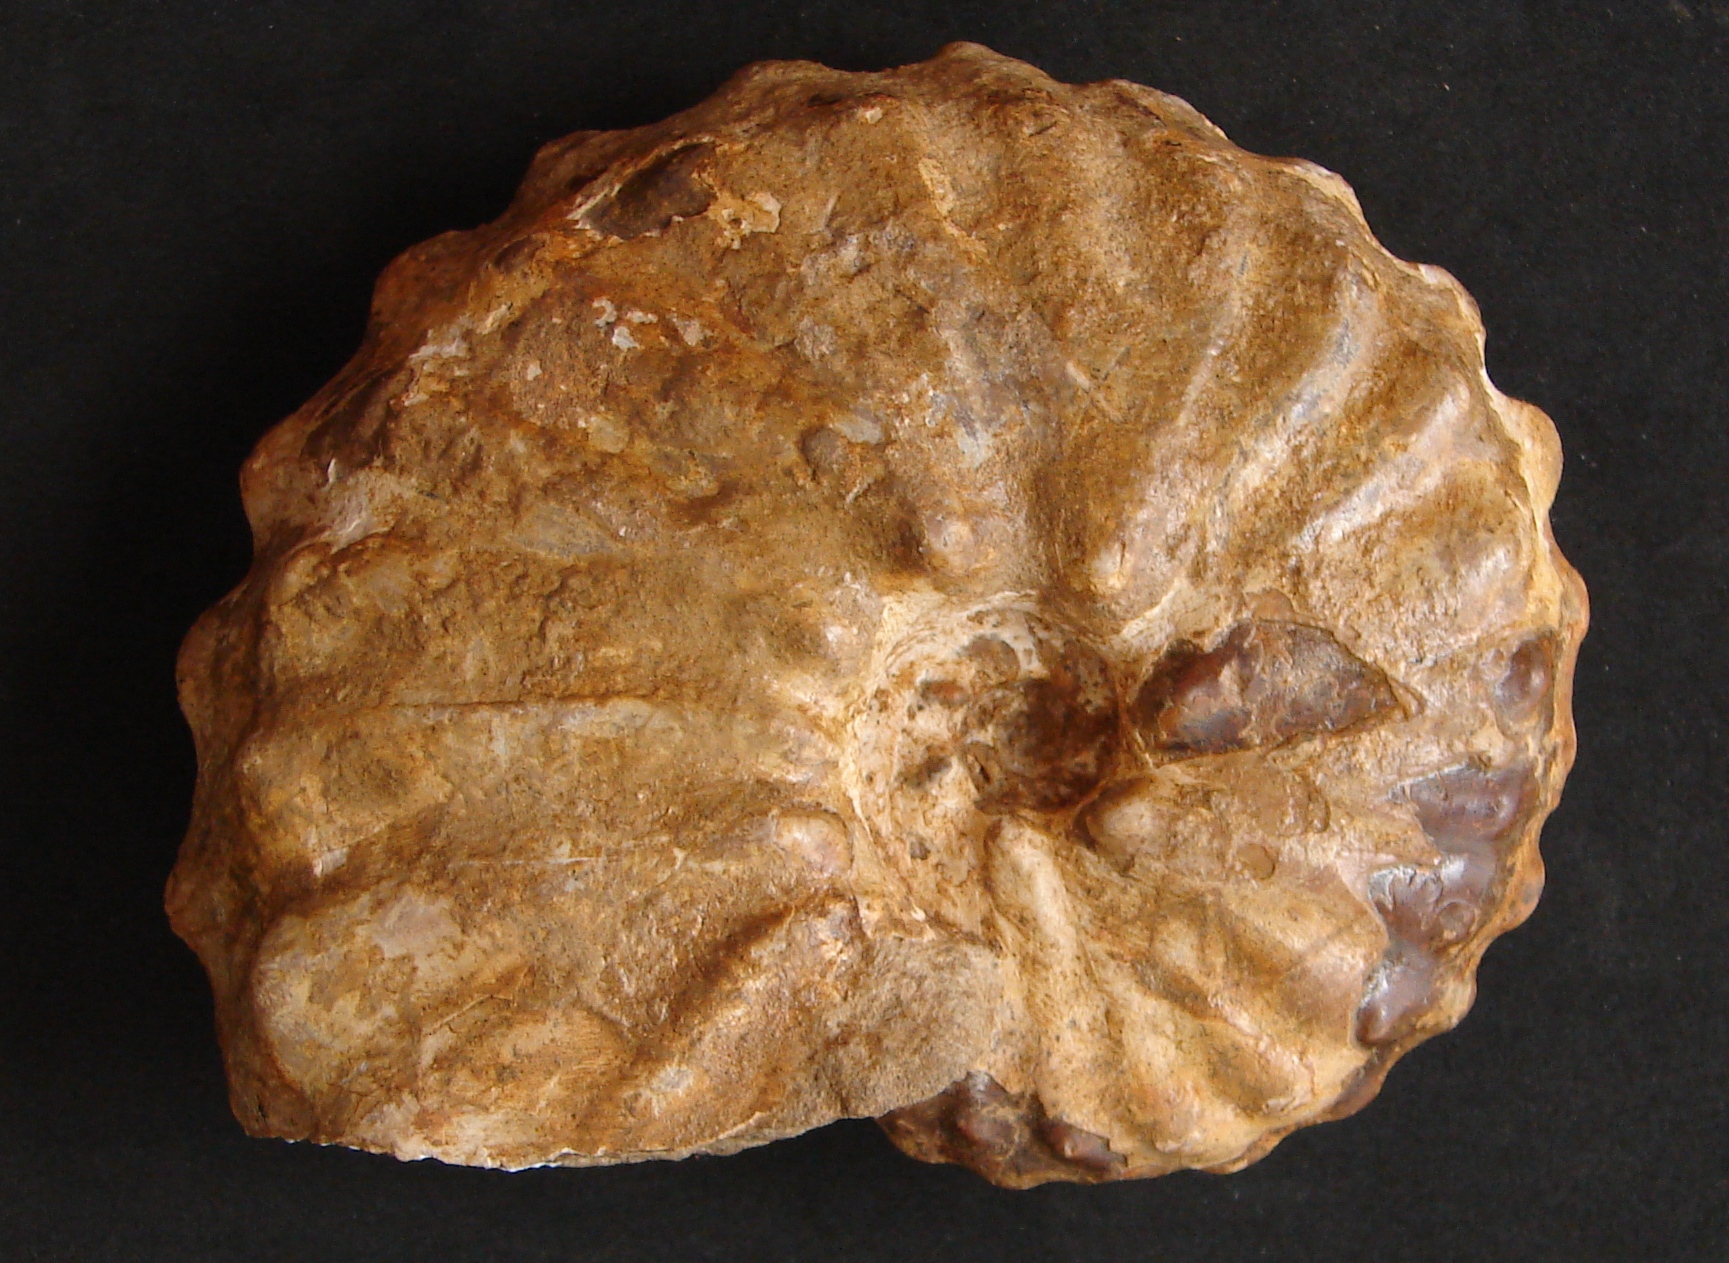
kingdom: Chromista
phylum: Ochrophyta
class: Bacillariophyceae
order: Chaetocerotales
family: Acanthocerataceae
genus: Barroisiceras
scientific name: Barroisiceras onilahyense
